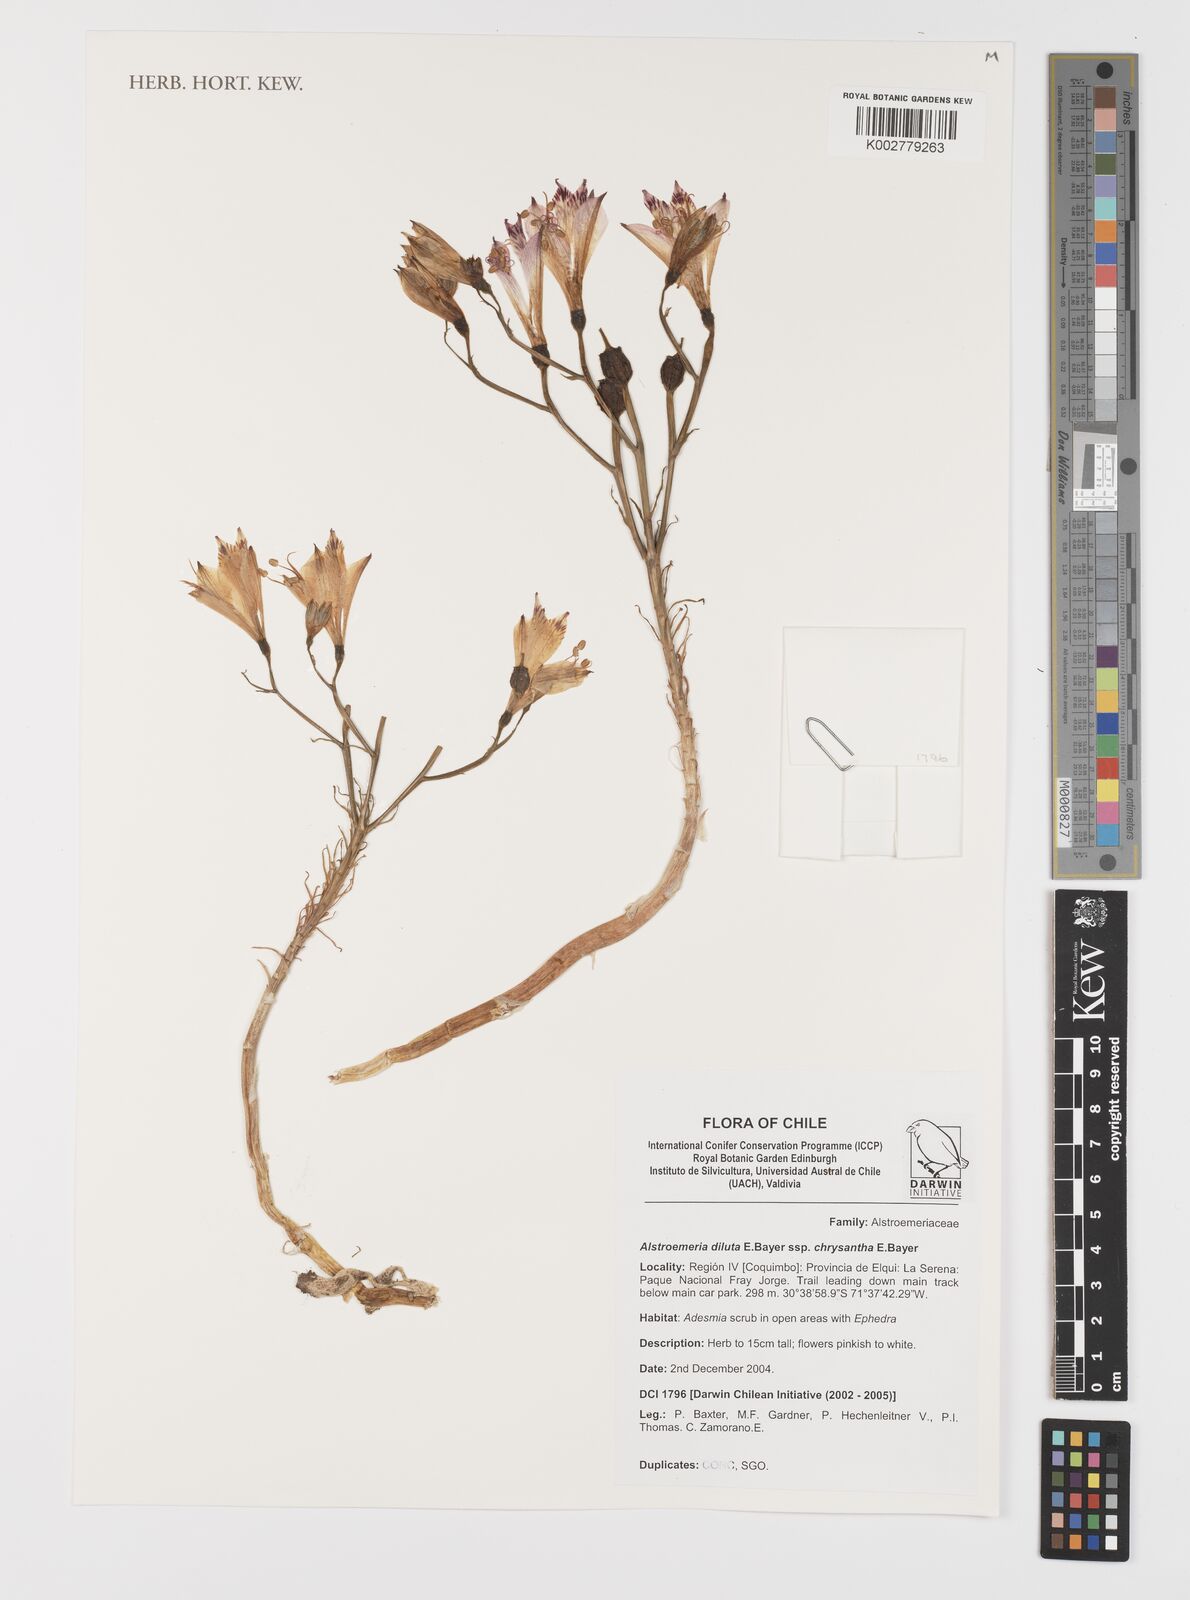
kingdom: Plantae
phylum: Tracheophyta
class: Liliopsida
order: Liliales
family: Alstroemeriaceae
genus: Alstroemeria
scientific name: Alstroemeria chrysantha
